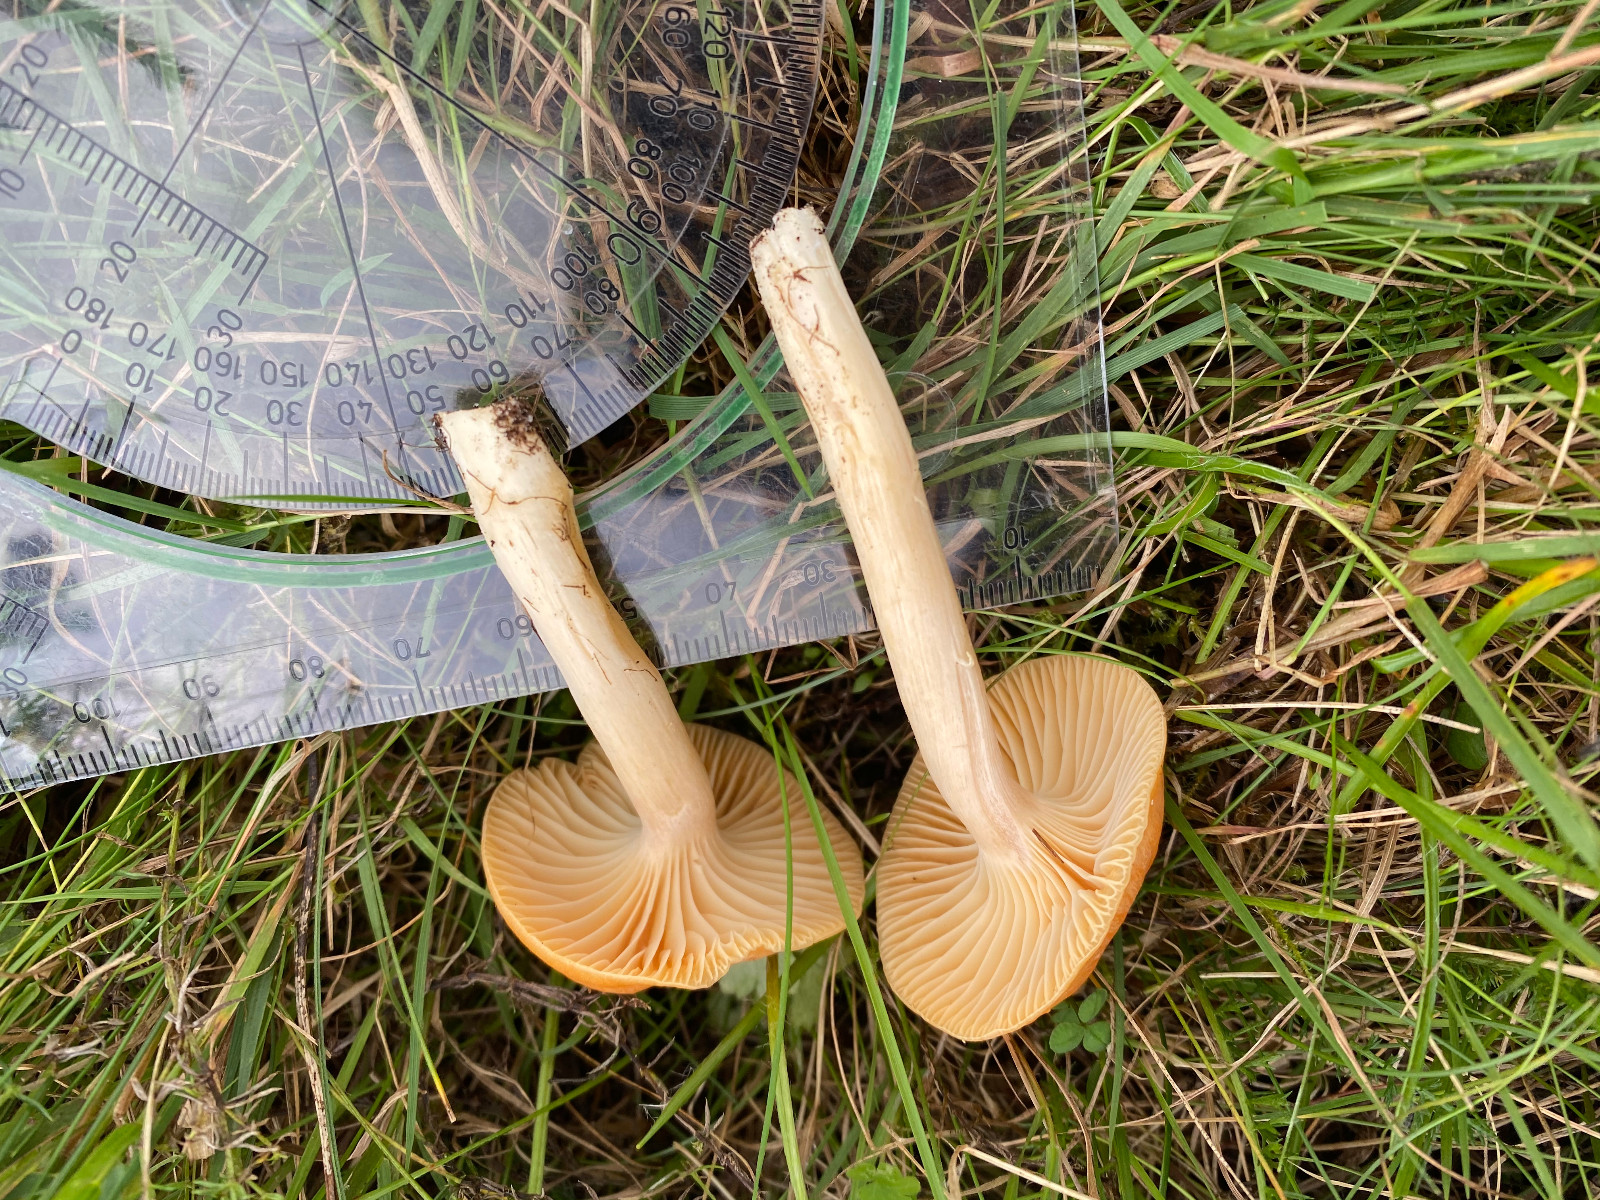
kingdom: Fungi
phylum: Basidiomycota
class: Agaricomycetes
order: Agaricales
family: Hygrophoraceae
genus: Cuphophyllus
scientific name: Cuphophyllus pratensis
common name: eng-vokshat
